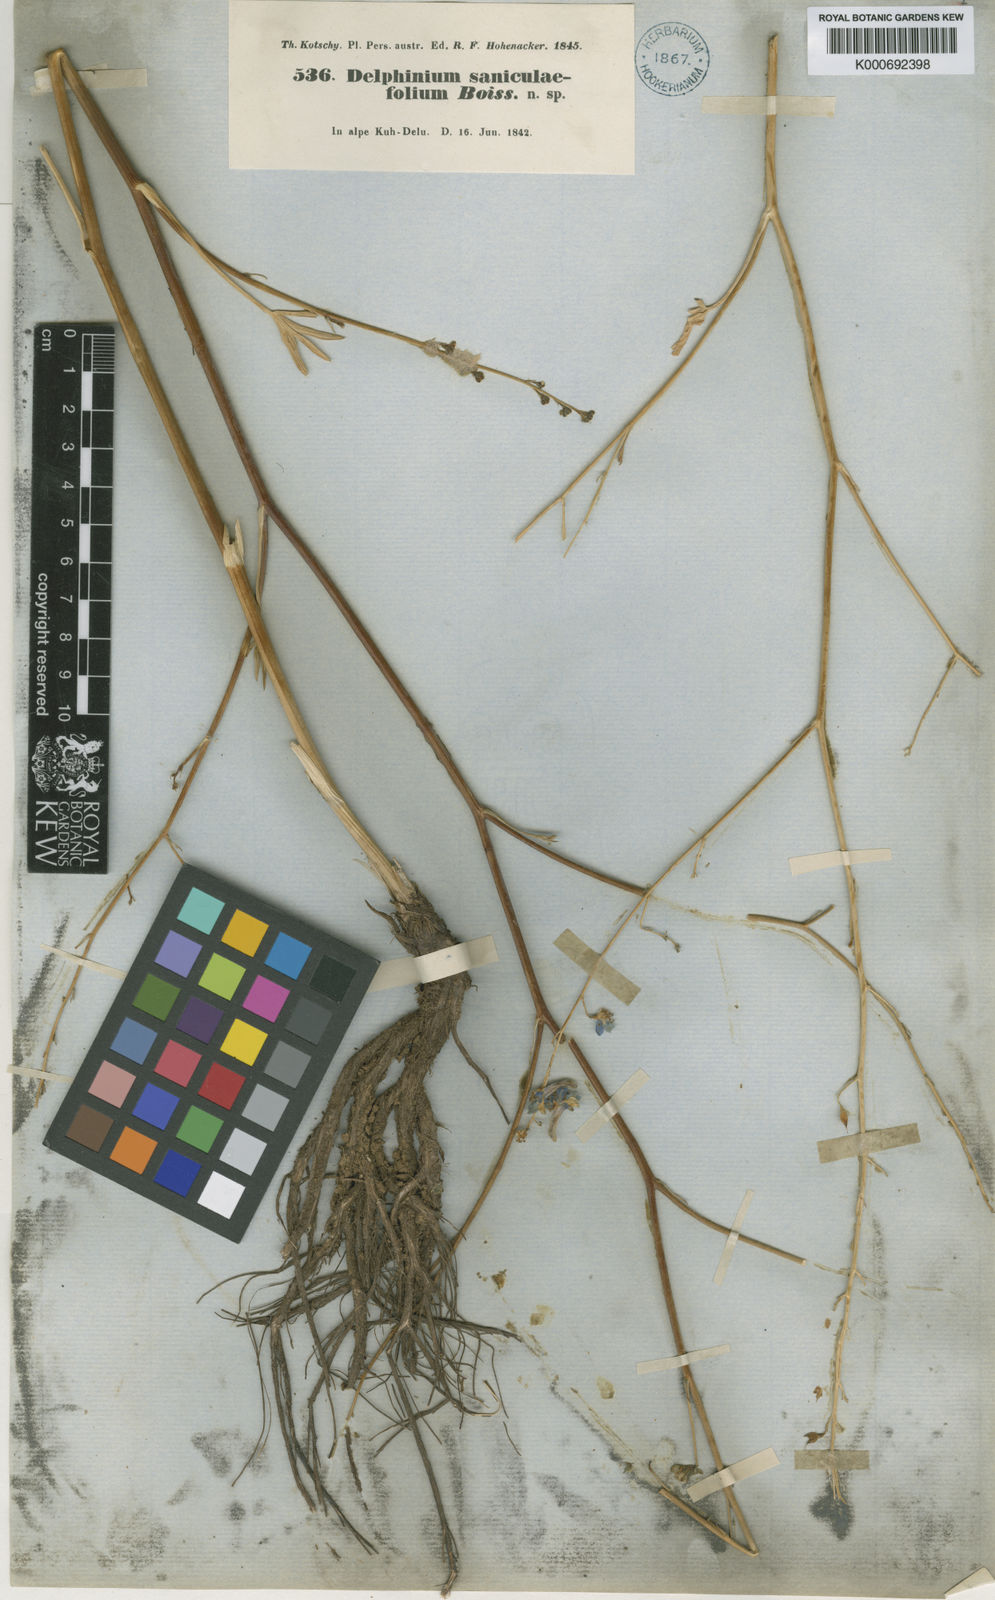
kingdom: Plantae
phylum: Tracheophyta
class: Magnoliopsida
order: Ranunculales
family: Ranunculaceae
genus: Delphinium
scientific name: Delphinium saniculifolium
